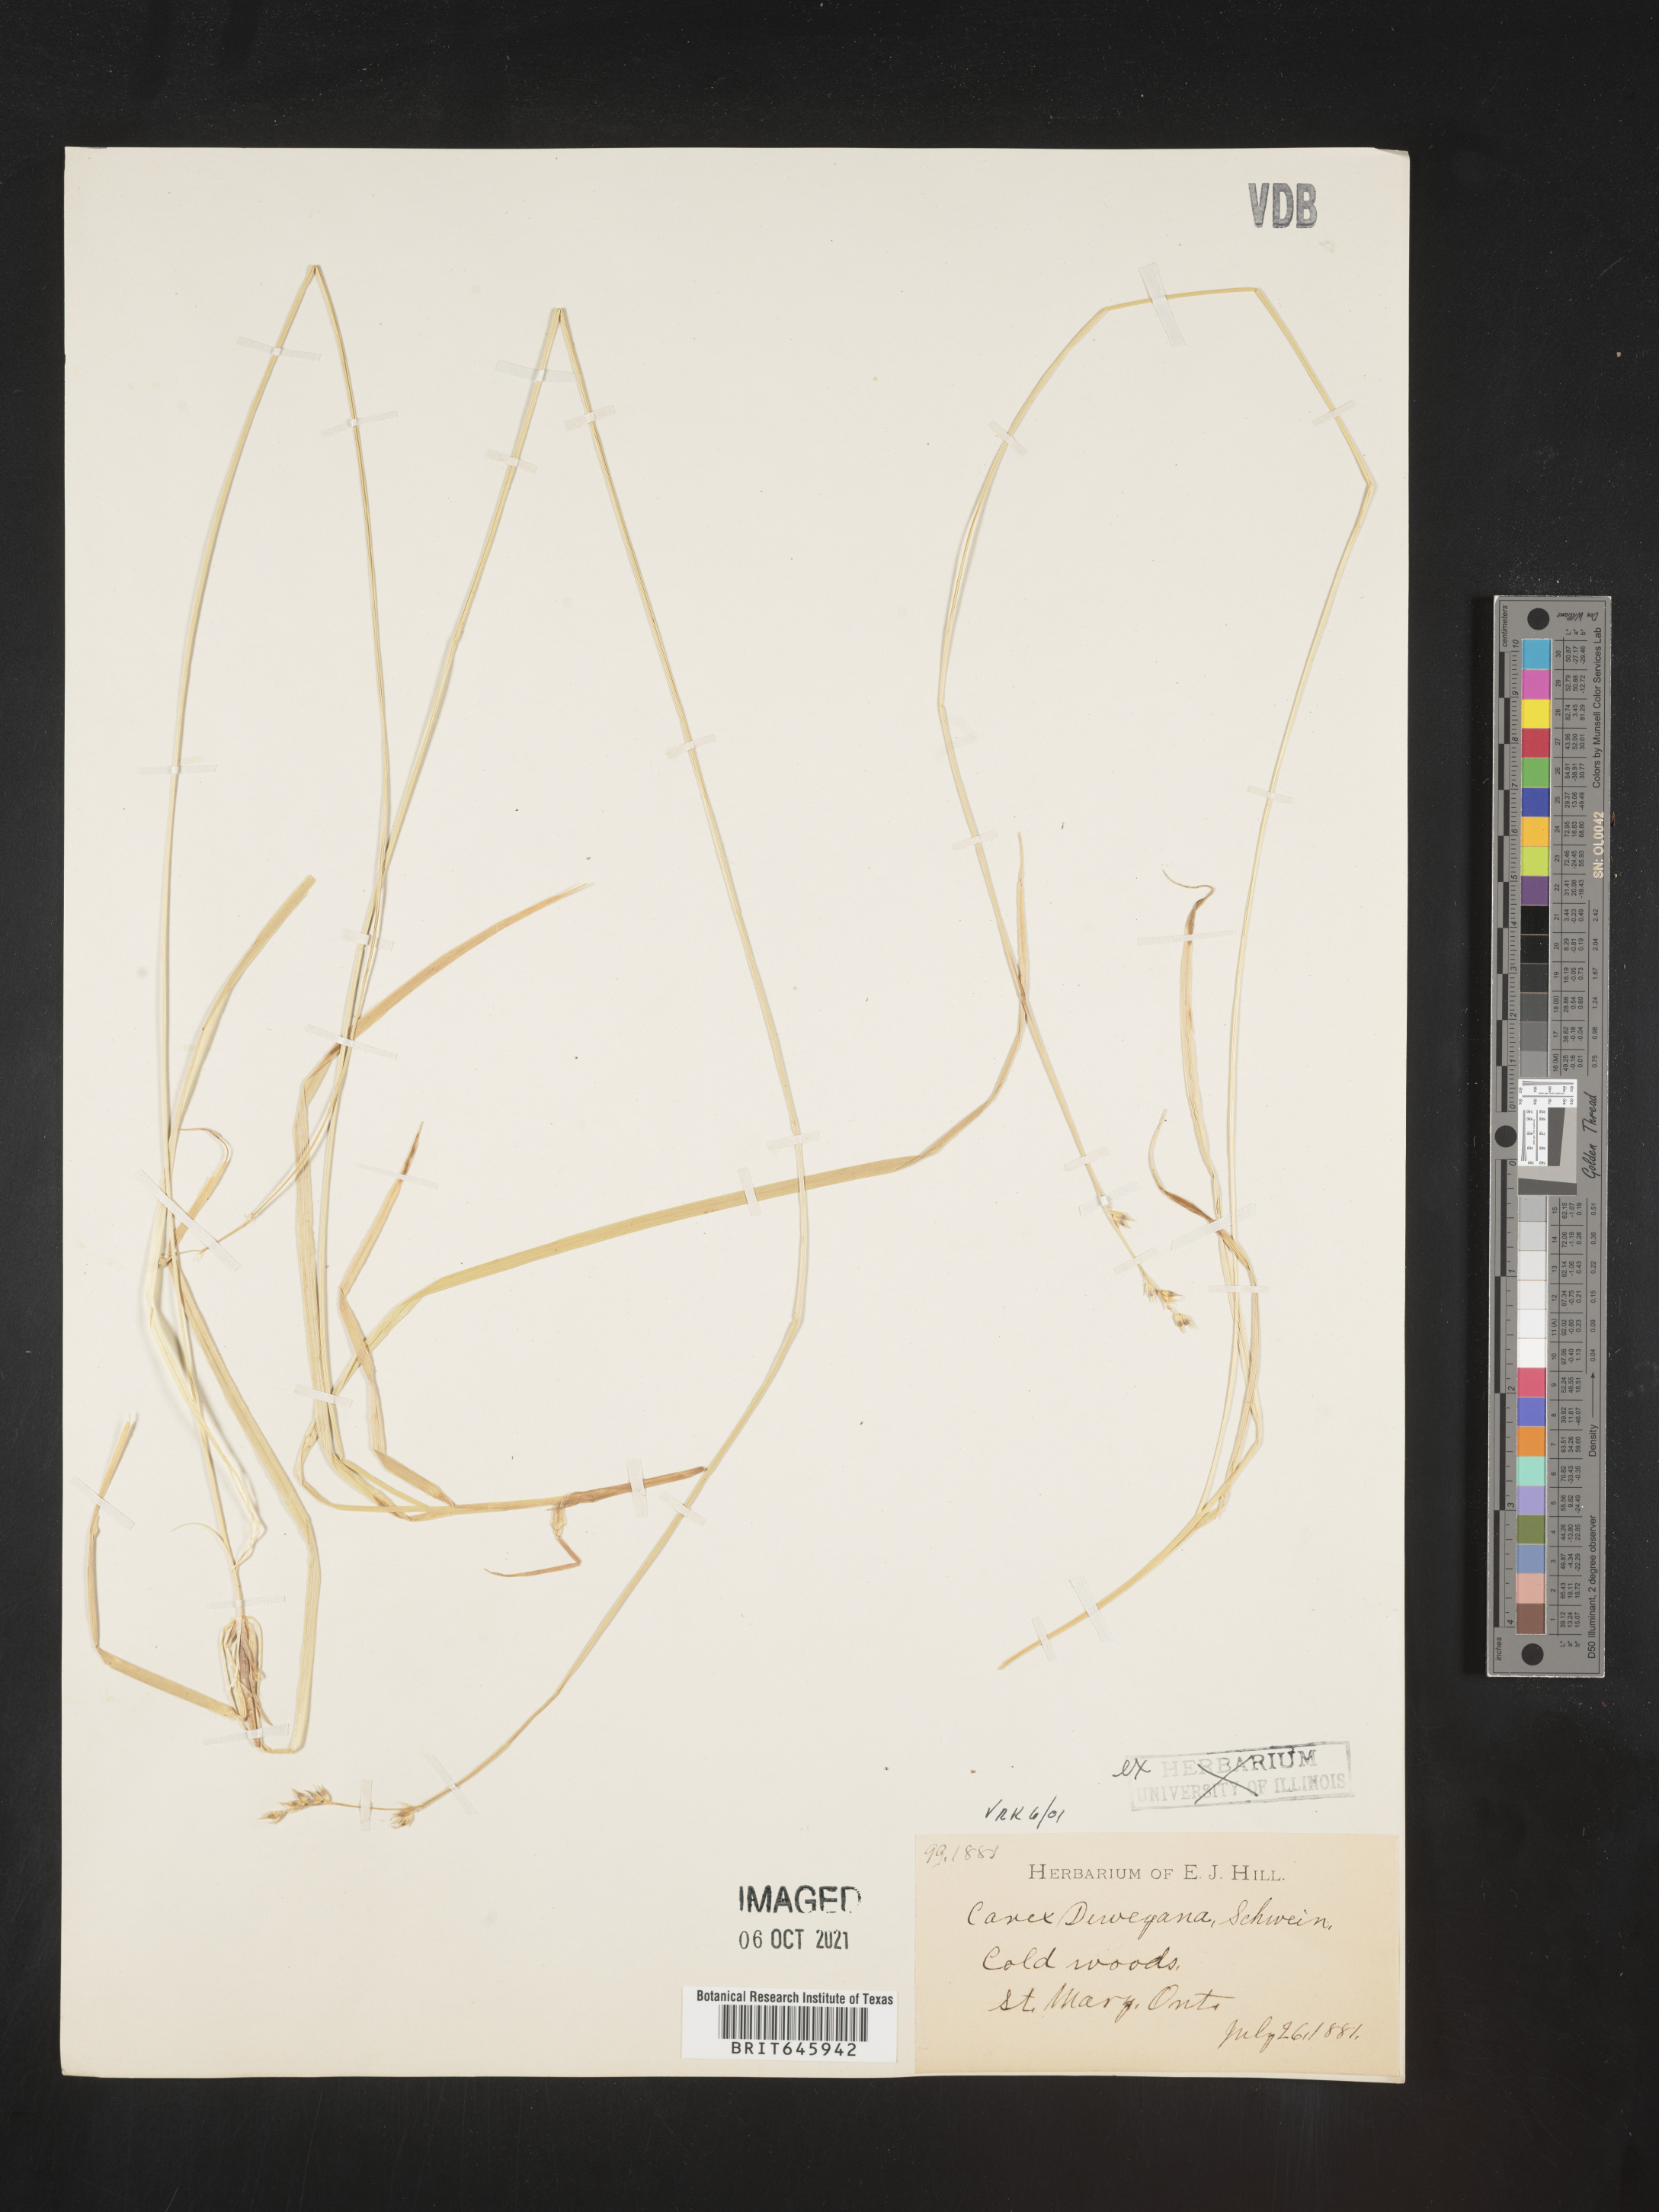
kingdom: Plantae
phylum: Tracheophyta
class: Liliopsida
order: Poales
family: Cyperaceae
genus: Carex
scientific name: Carex deweyana
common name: Dewey's sedge
